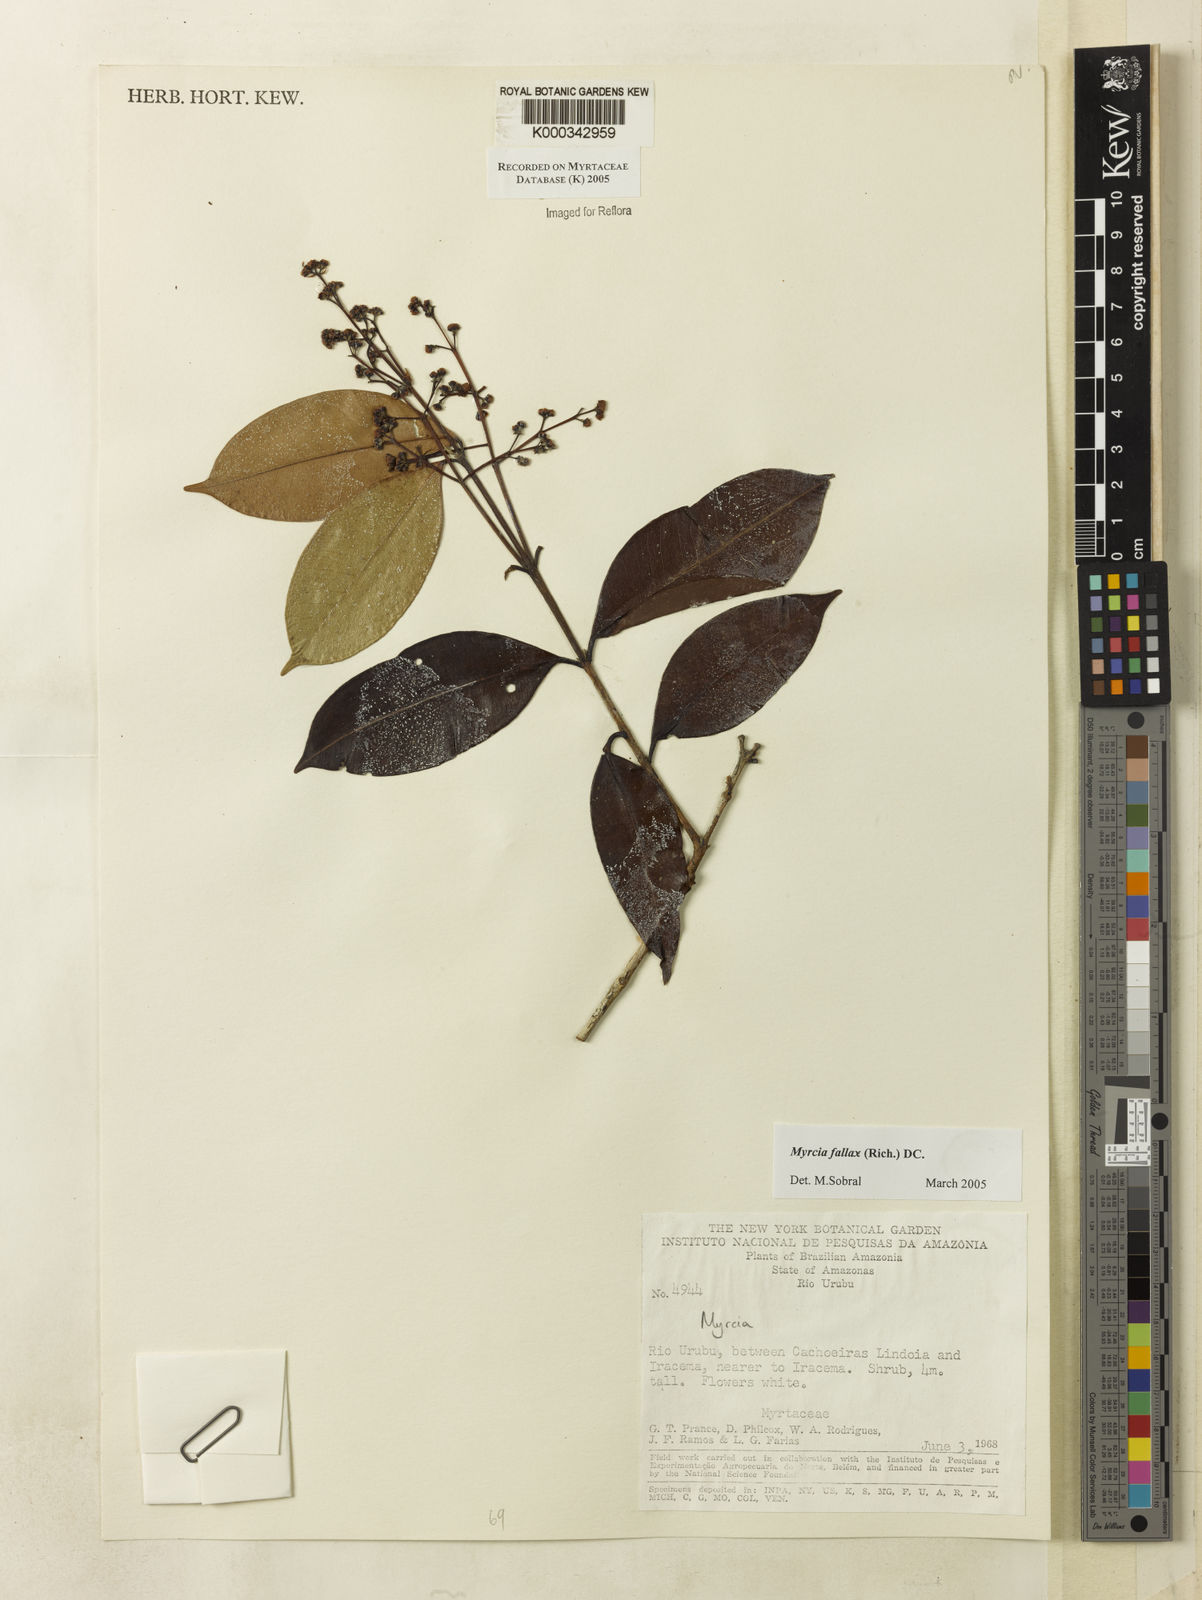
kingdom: Plantae
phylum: Tracheophyta
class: Magnoliopsida
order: Myrtales
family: Myrtaceae
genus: Myrcia
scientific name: Myrcia splendens
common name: Surinam cherry
